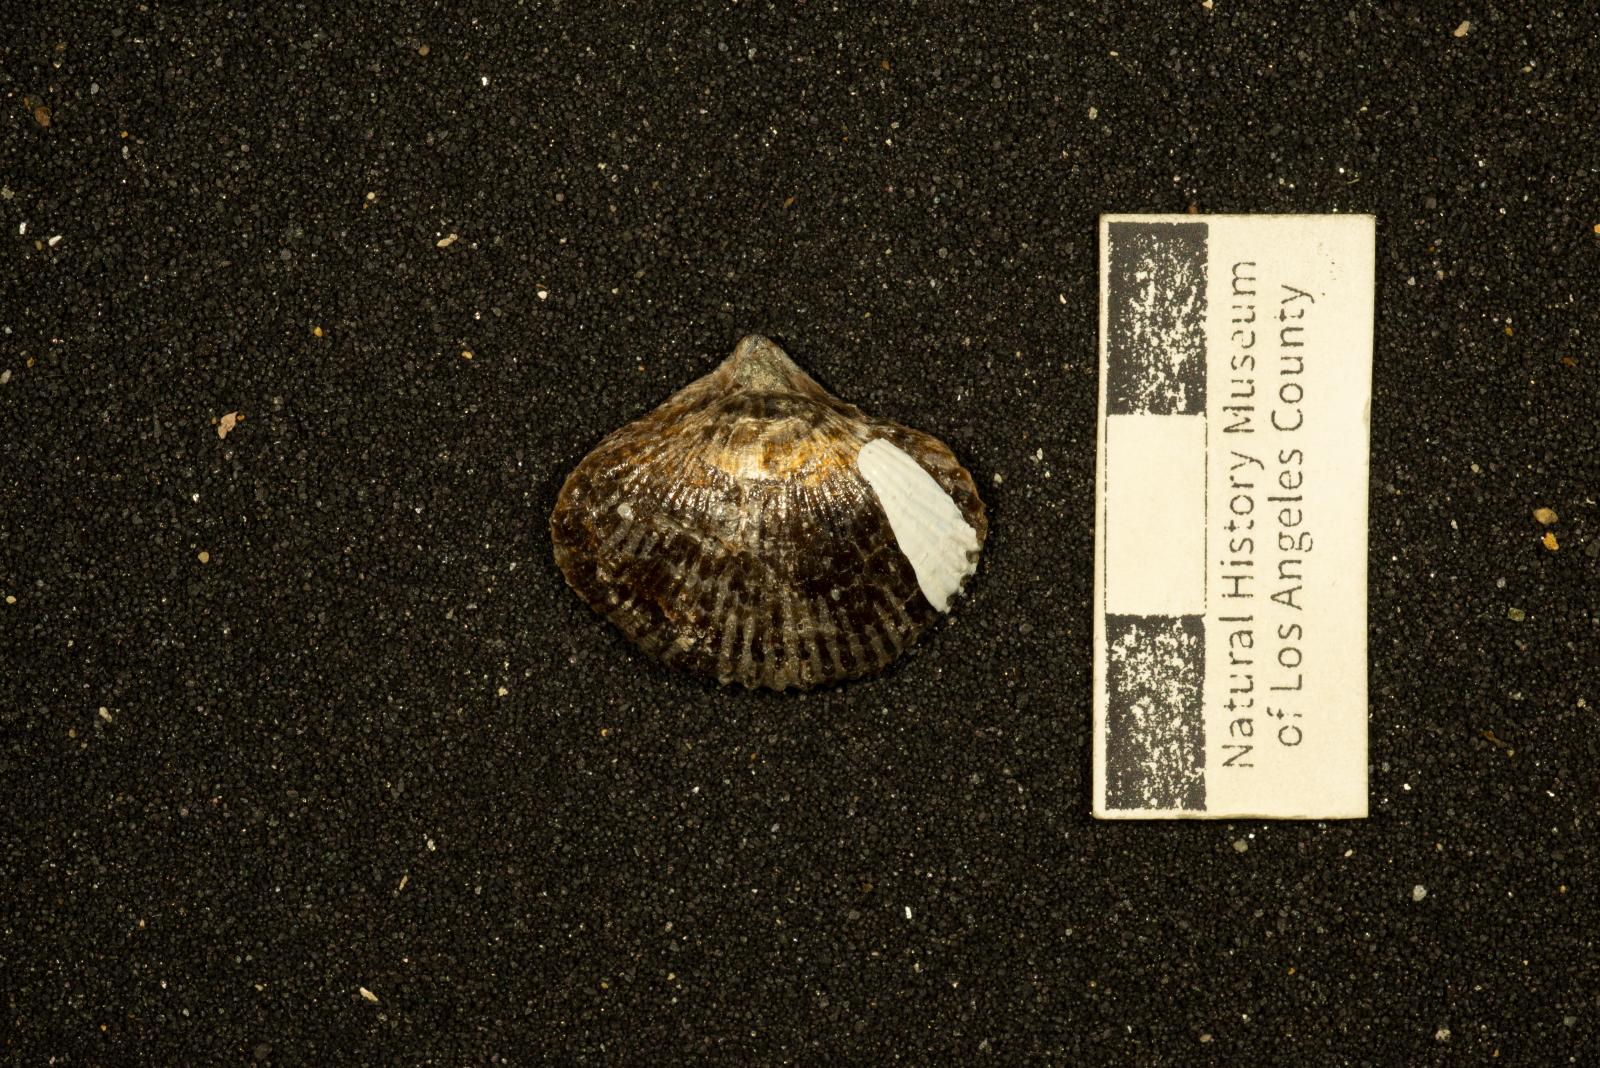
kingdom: Animalia
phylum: Brachiopoda
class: Rhynchonellata
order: Rhynchonellida
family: Rhynchonellidae
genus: Rhynchonella
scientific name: Rhynchonella
